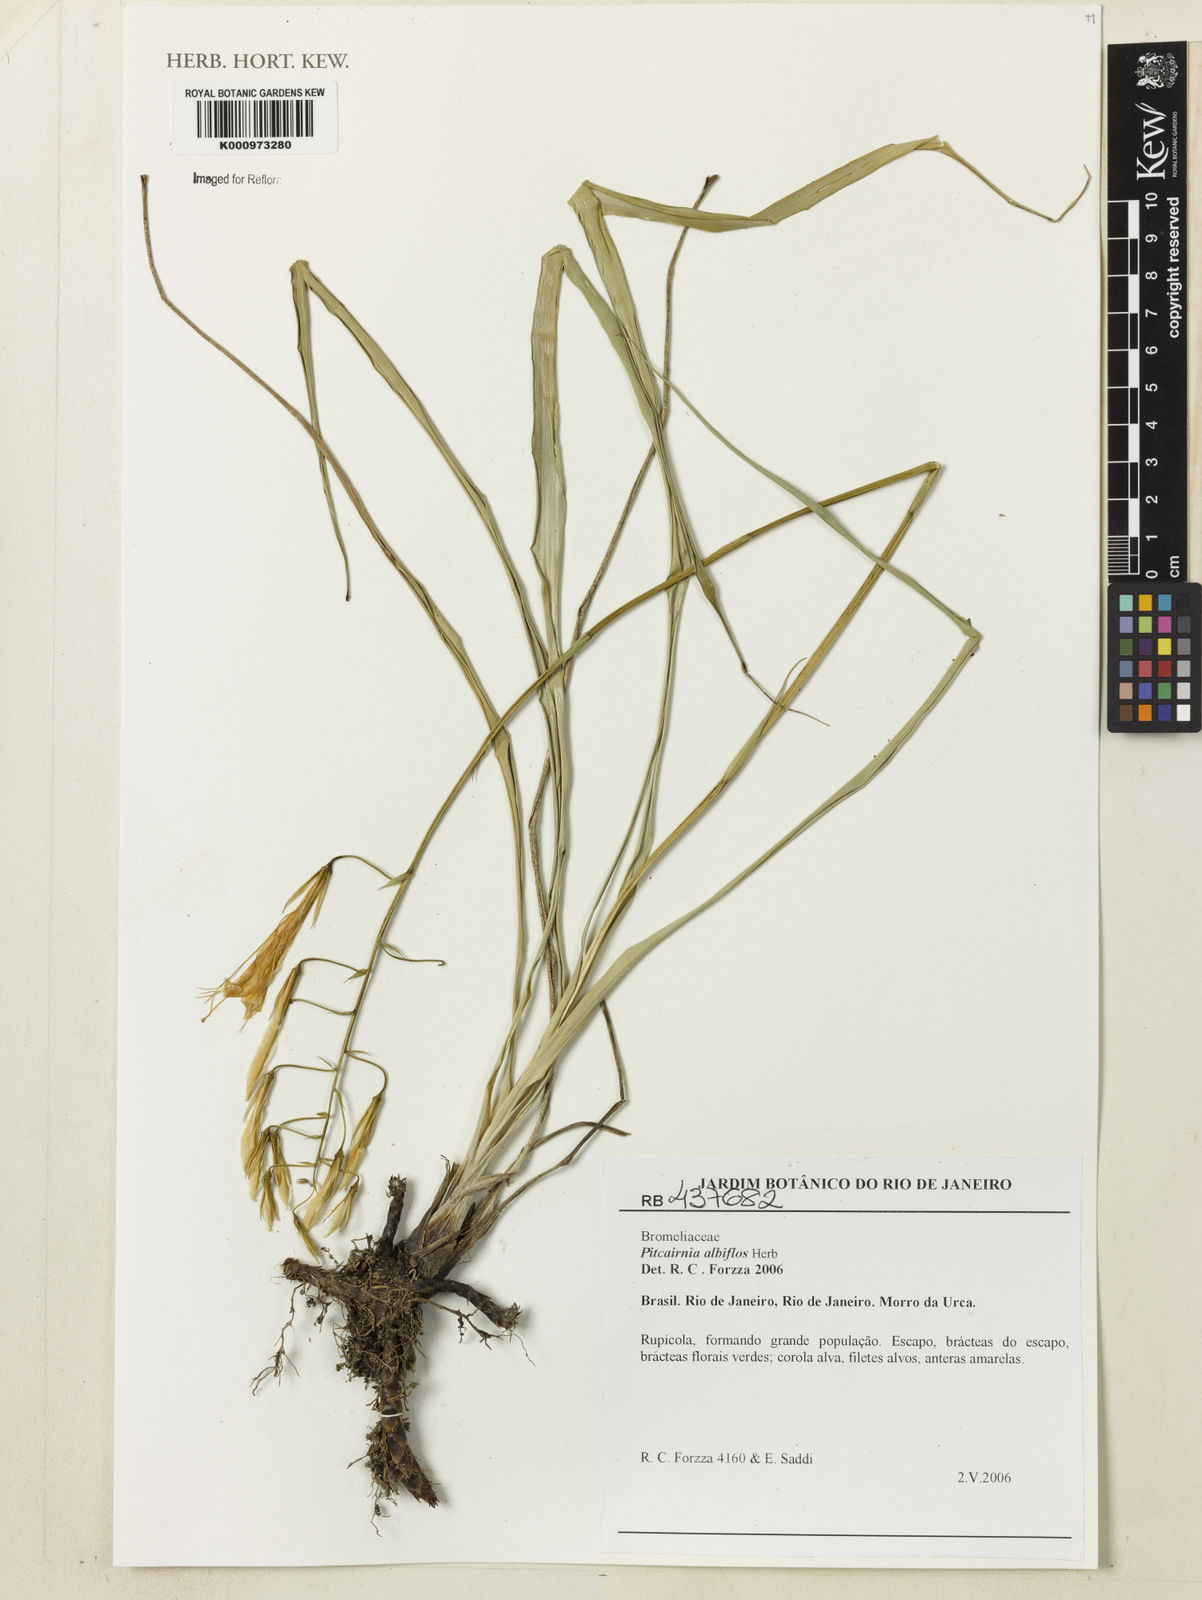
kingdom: Plantae
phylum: Tracheophyta
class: Liliopsida
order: Poales
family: Bromeliaceae
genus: Pitcairnia
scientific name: Pitcairnia albiflos
